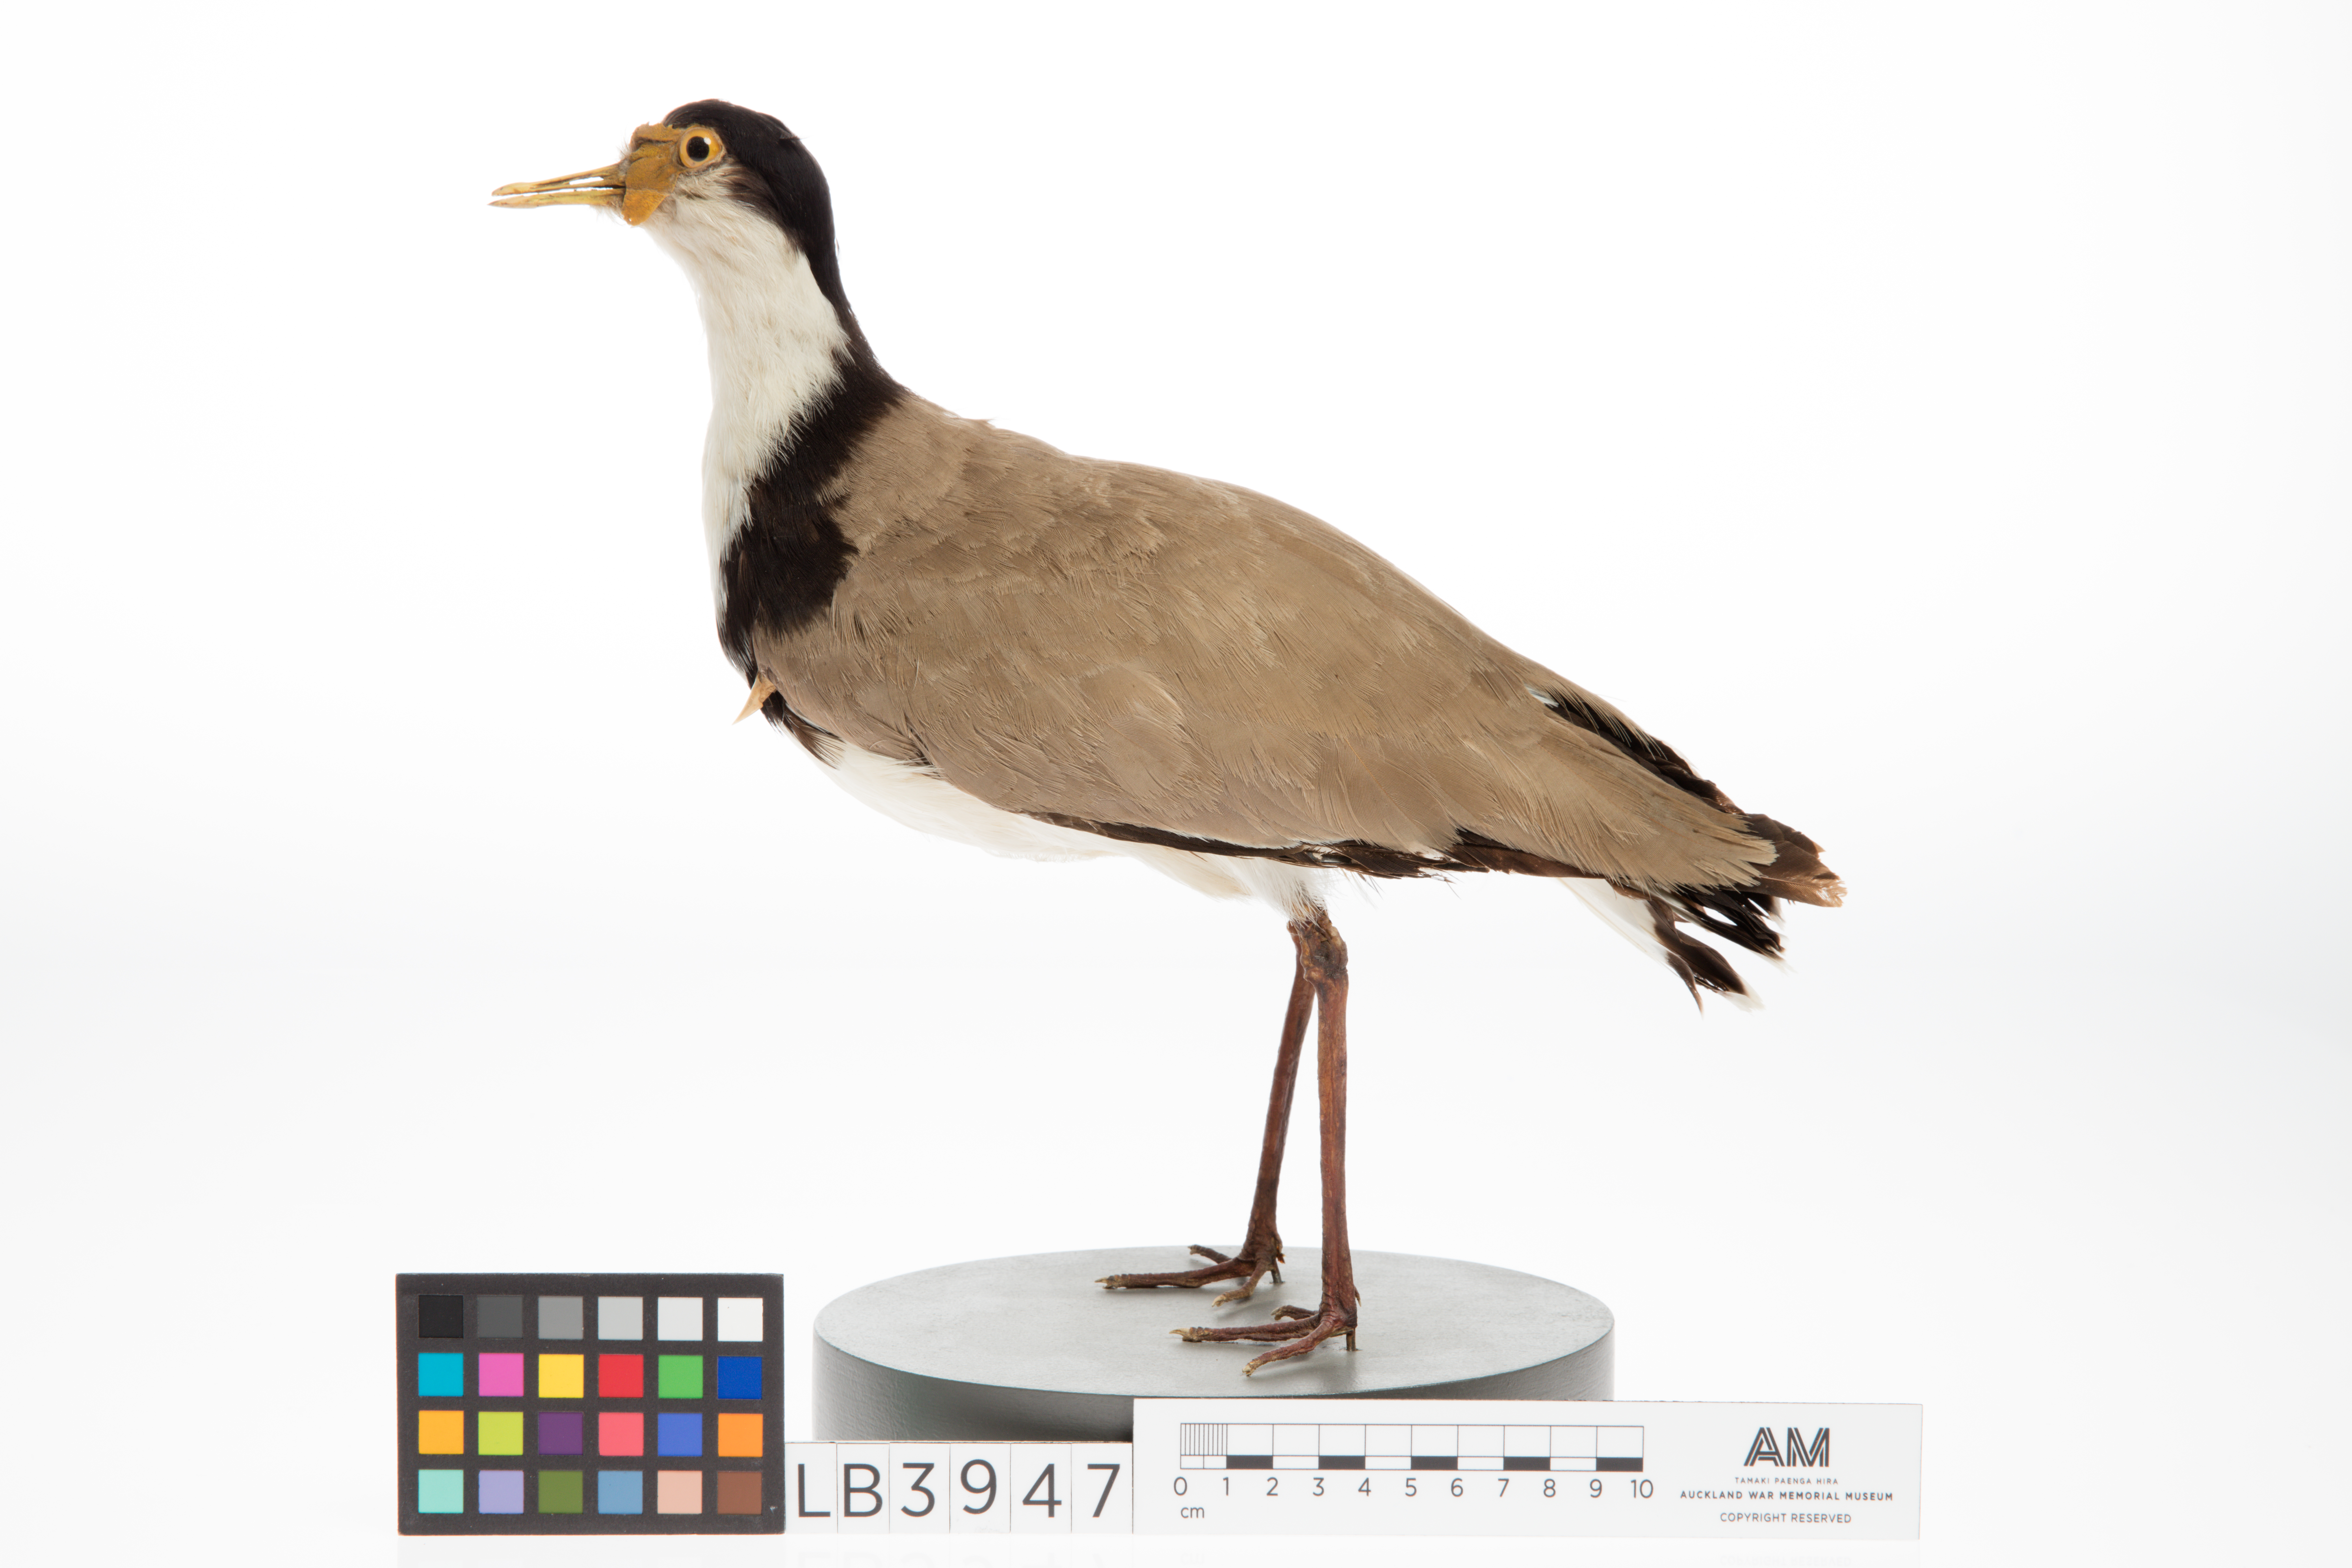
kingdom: Animalia
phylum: Chordata
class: Aves
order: Charadriiformes
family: Charadriidae
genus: Vanellus
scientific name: Vanellus miles
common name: Masked lapwing
